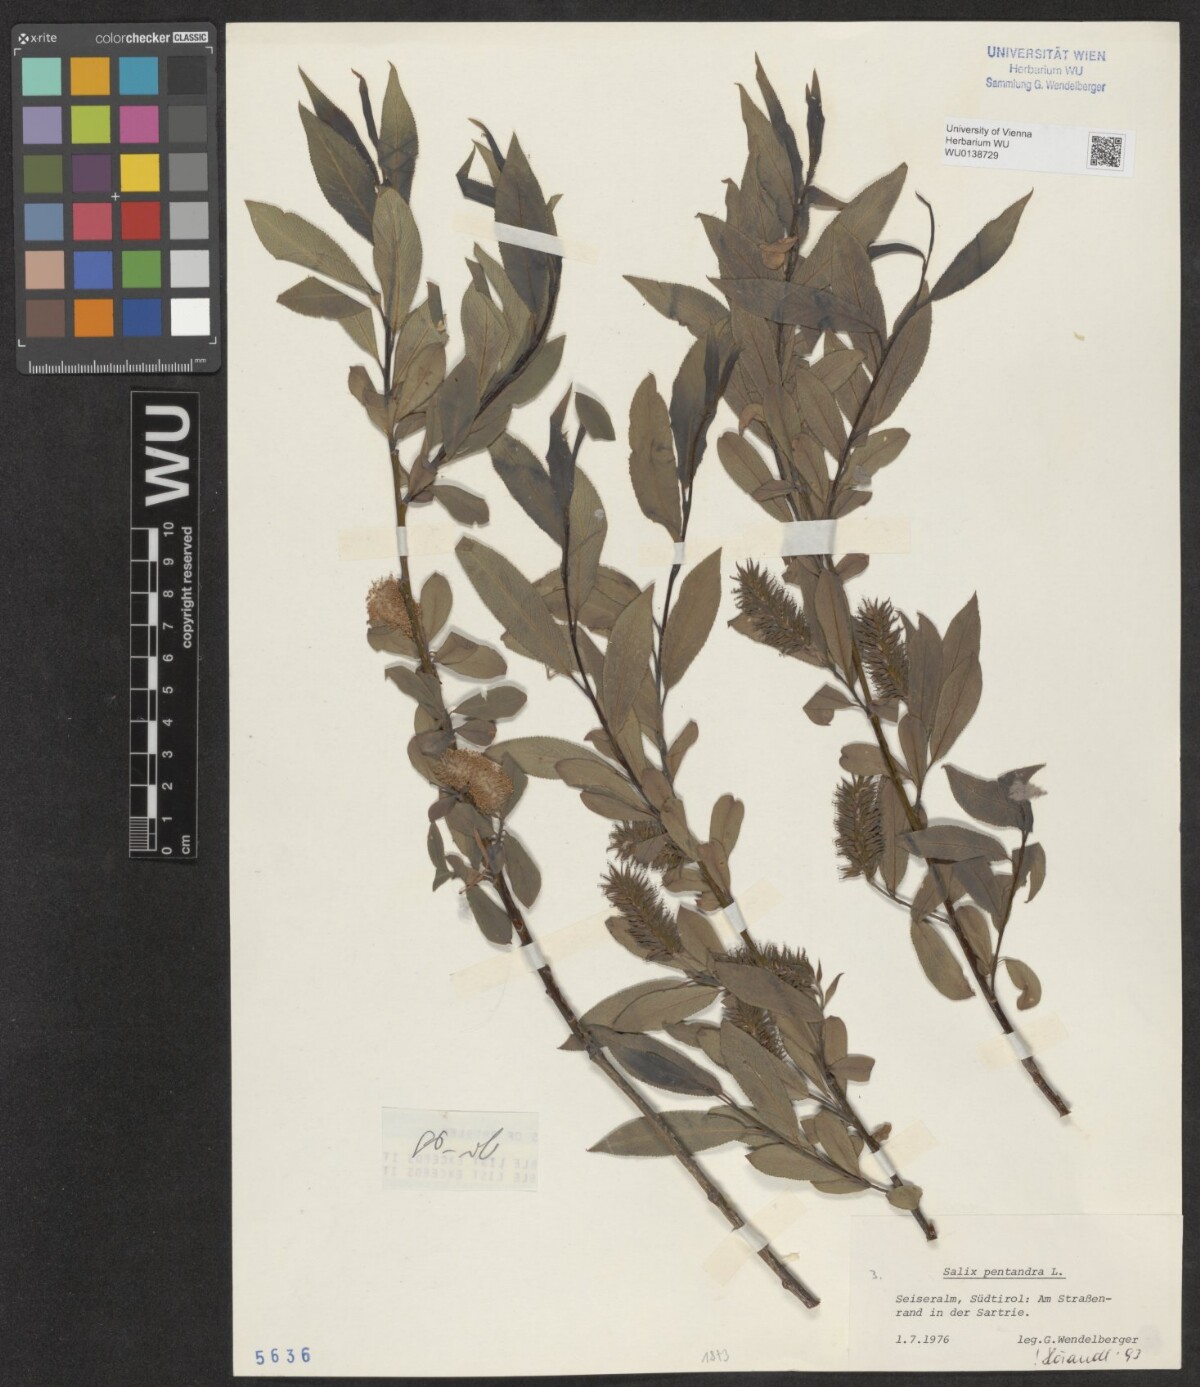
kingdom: Plantae
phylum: Tracheophyta
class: Magnoliopsida
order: Malpighiales
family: Salicaceae
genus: Salix
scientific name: Salix pentandra
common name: Bay willow
